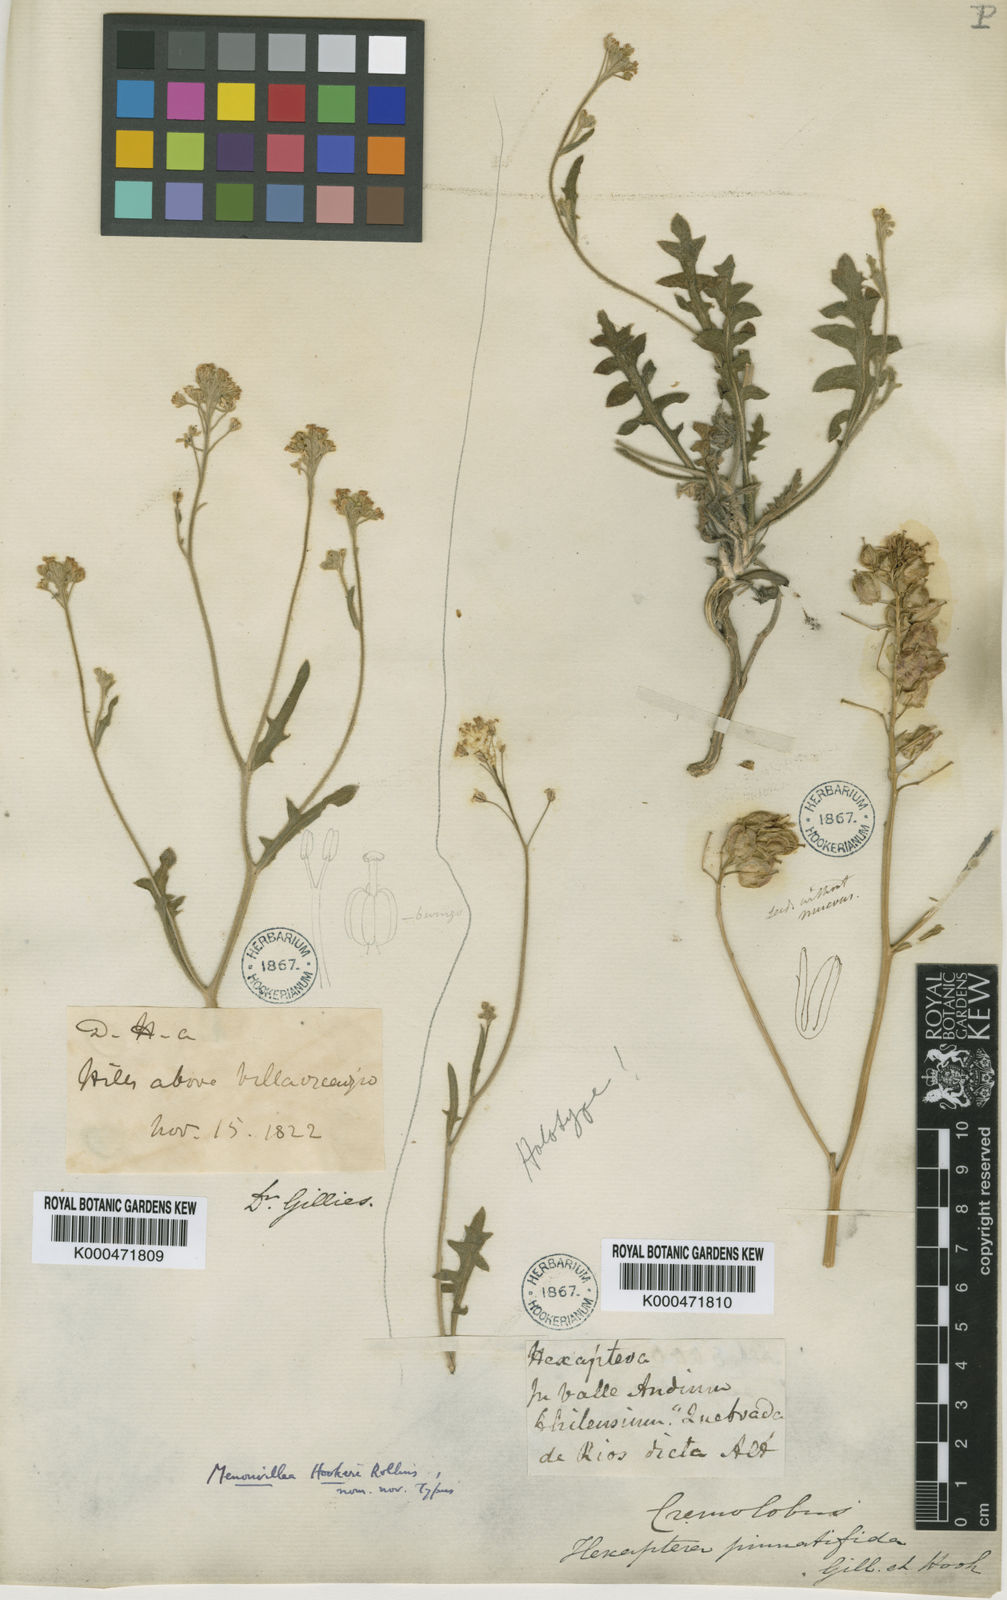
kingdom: Plantae
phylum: Tracheophyta
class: Magnoliopsida
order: Brassicales
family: Brassicaceae
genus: Menonvillea
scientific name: Menonvillea scapigera
